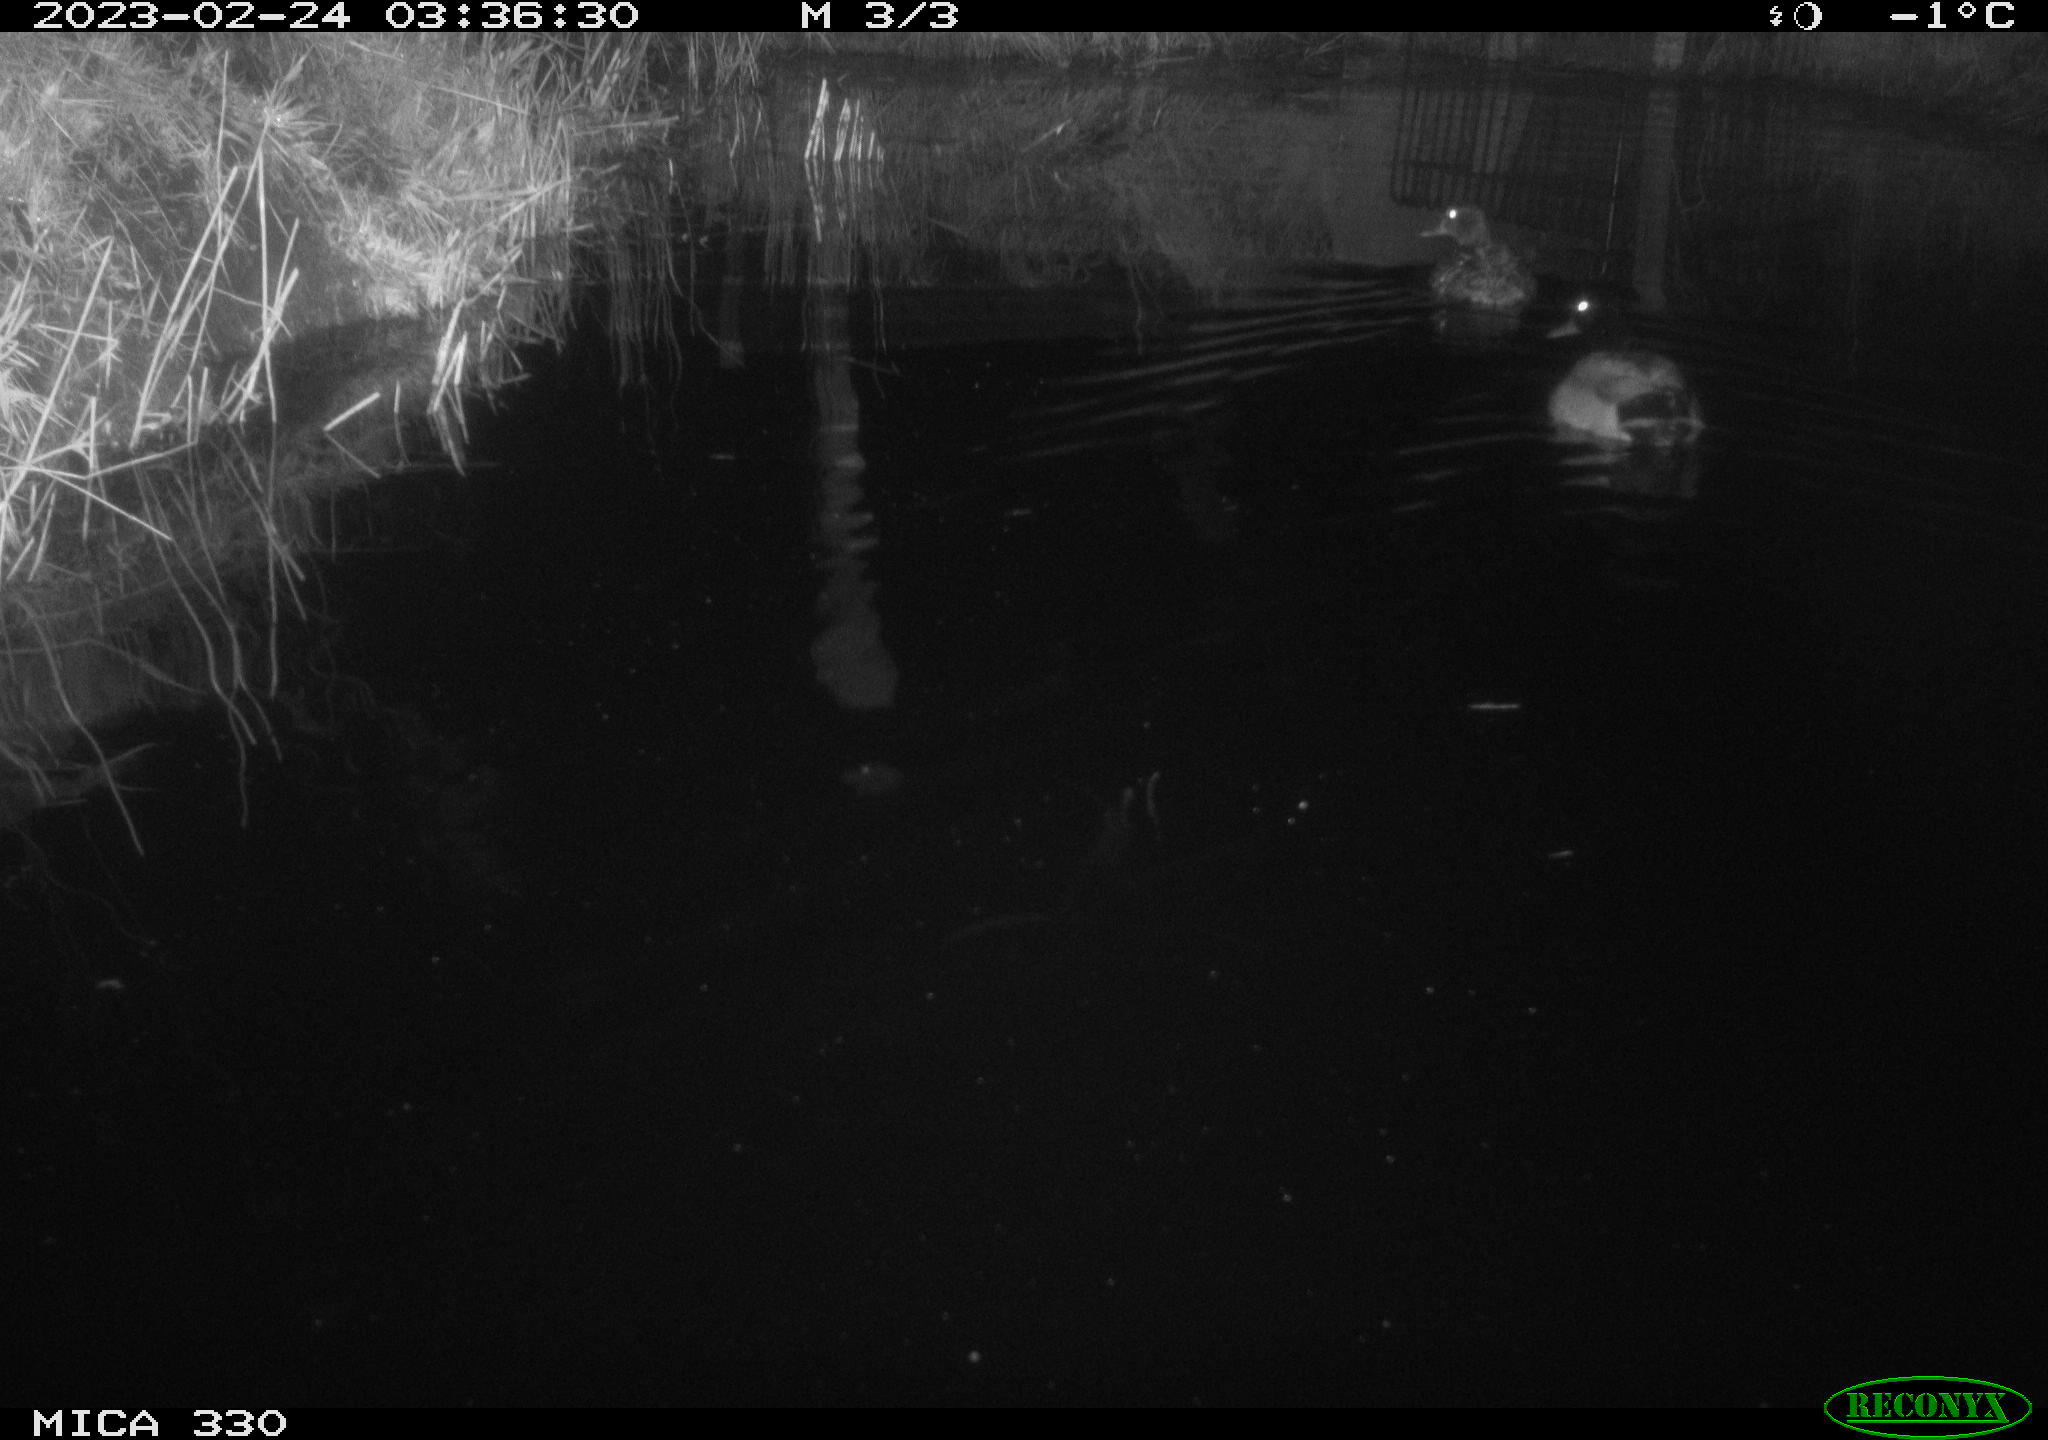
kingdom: Animalia
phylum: Chordata
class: Aves
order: Anseriformes
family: Anatidae
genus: Anas
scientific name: Anas
